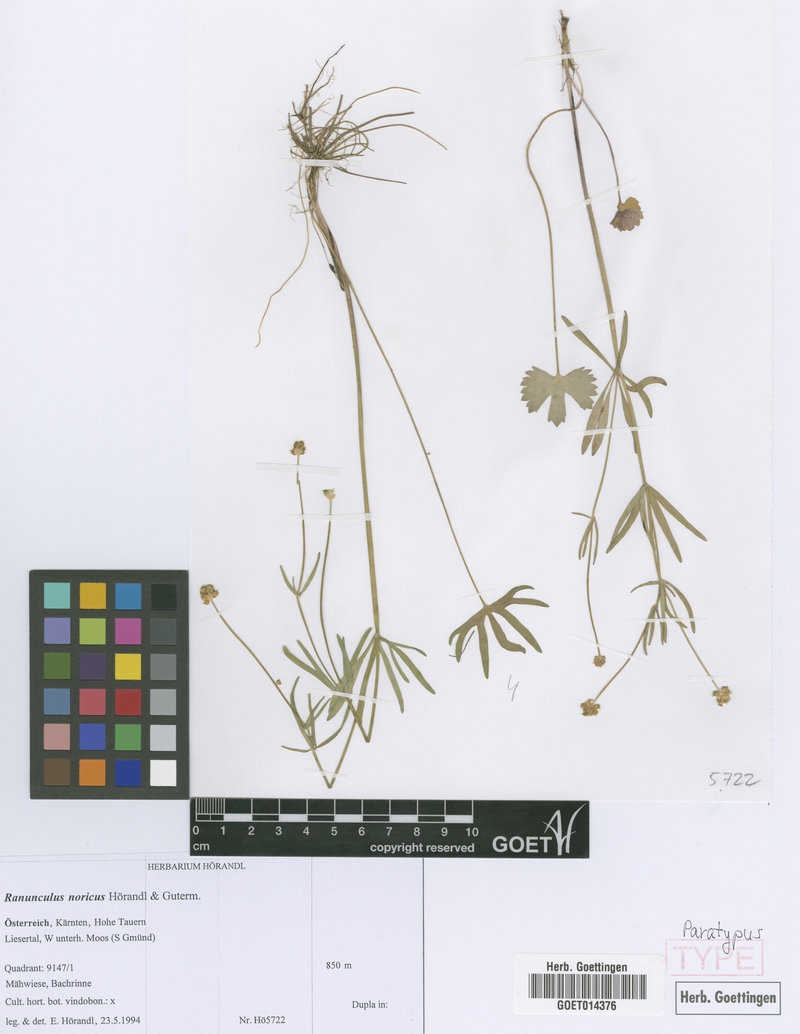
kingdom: Plantae
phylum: Tracheophyta
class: Magnoliopsida
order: Ranunculales
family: Ranunculaceae
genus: Ranunculus
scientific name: Ranunculus noricus
